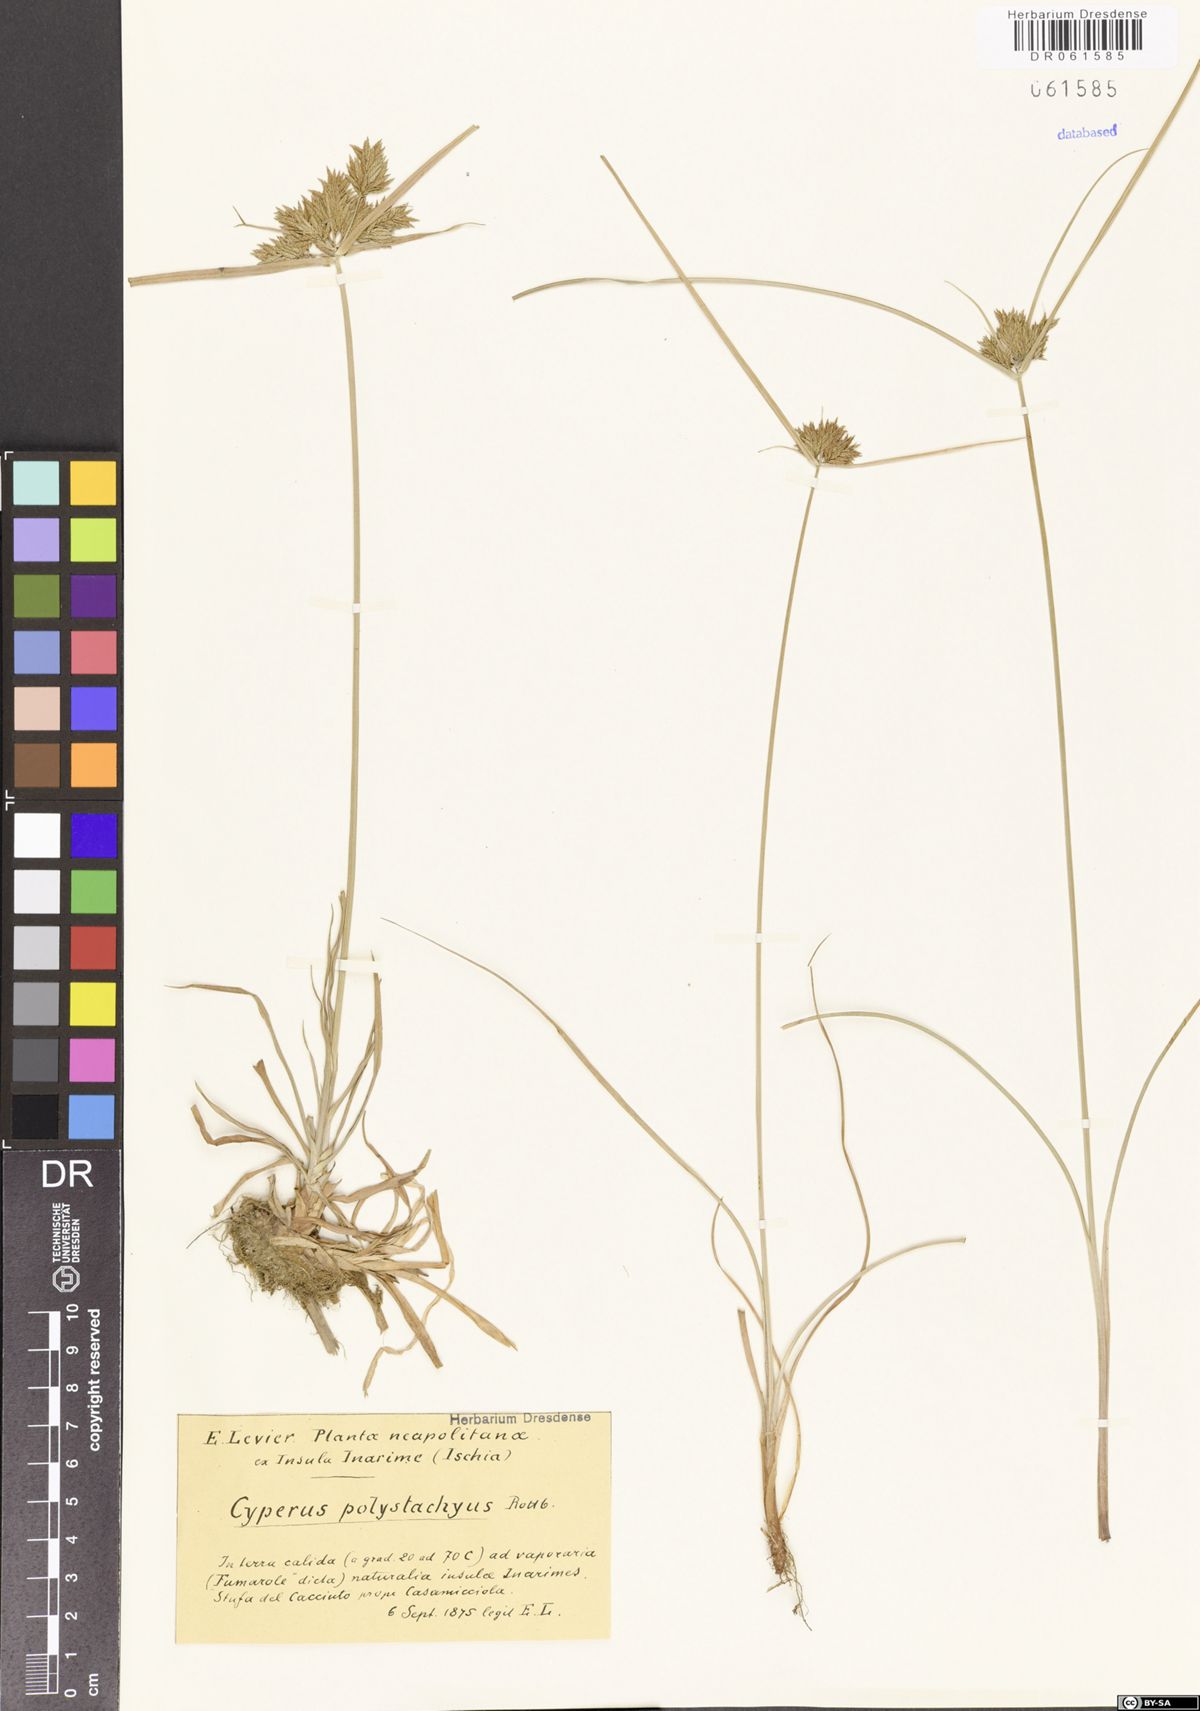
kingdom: Plantae
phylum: Tracheophyta
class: Liliopsida
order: Poales
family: Cyperaceae
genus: Cyperus
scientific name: Cyperus polystachyos
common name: Bunchy flat sedge
